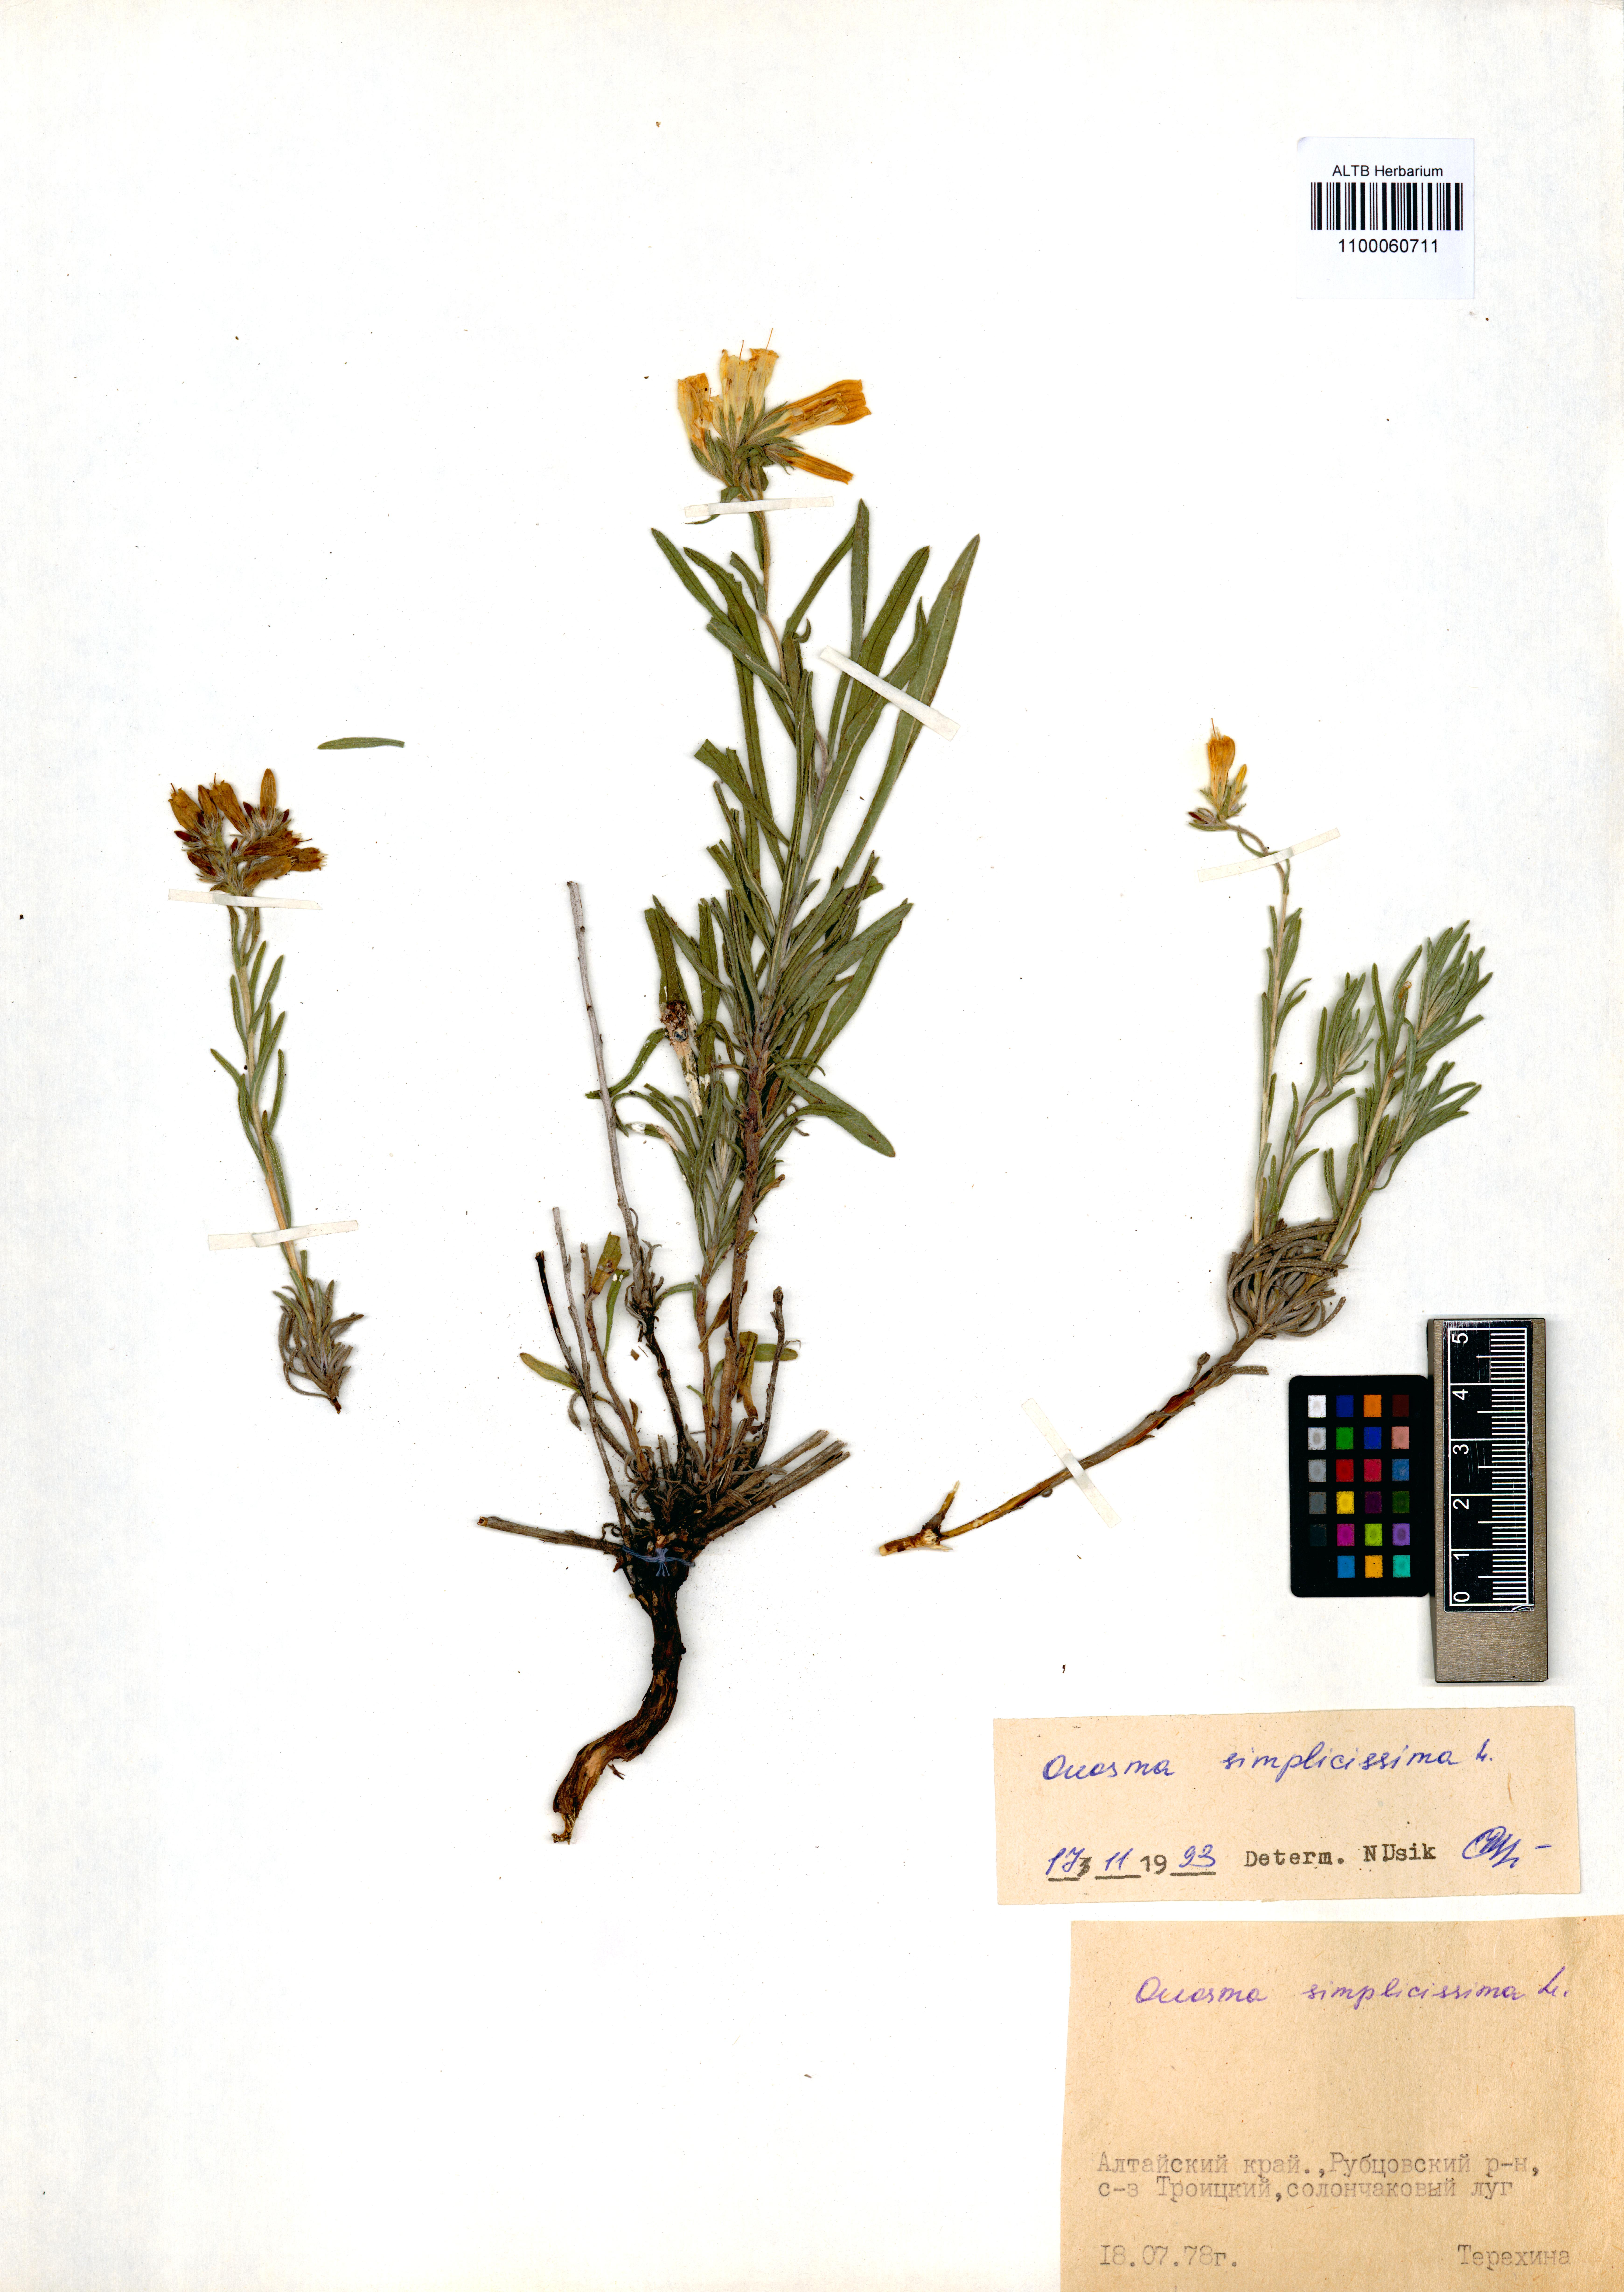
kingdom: Plantae
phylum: Tracheophyta
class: Magnoliopsida
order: Boraginales
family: Boraginaceae
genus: Onosma
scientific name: Onosma simplicissima
